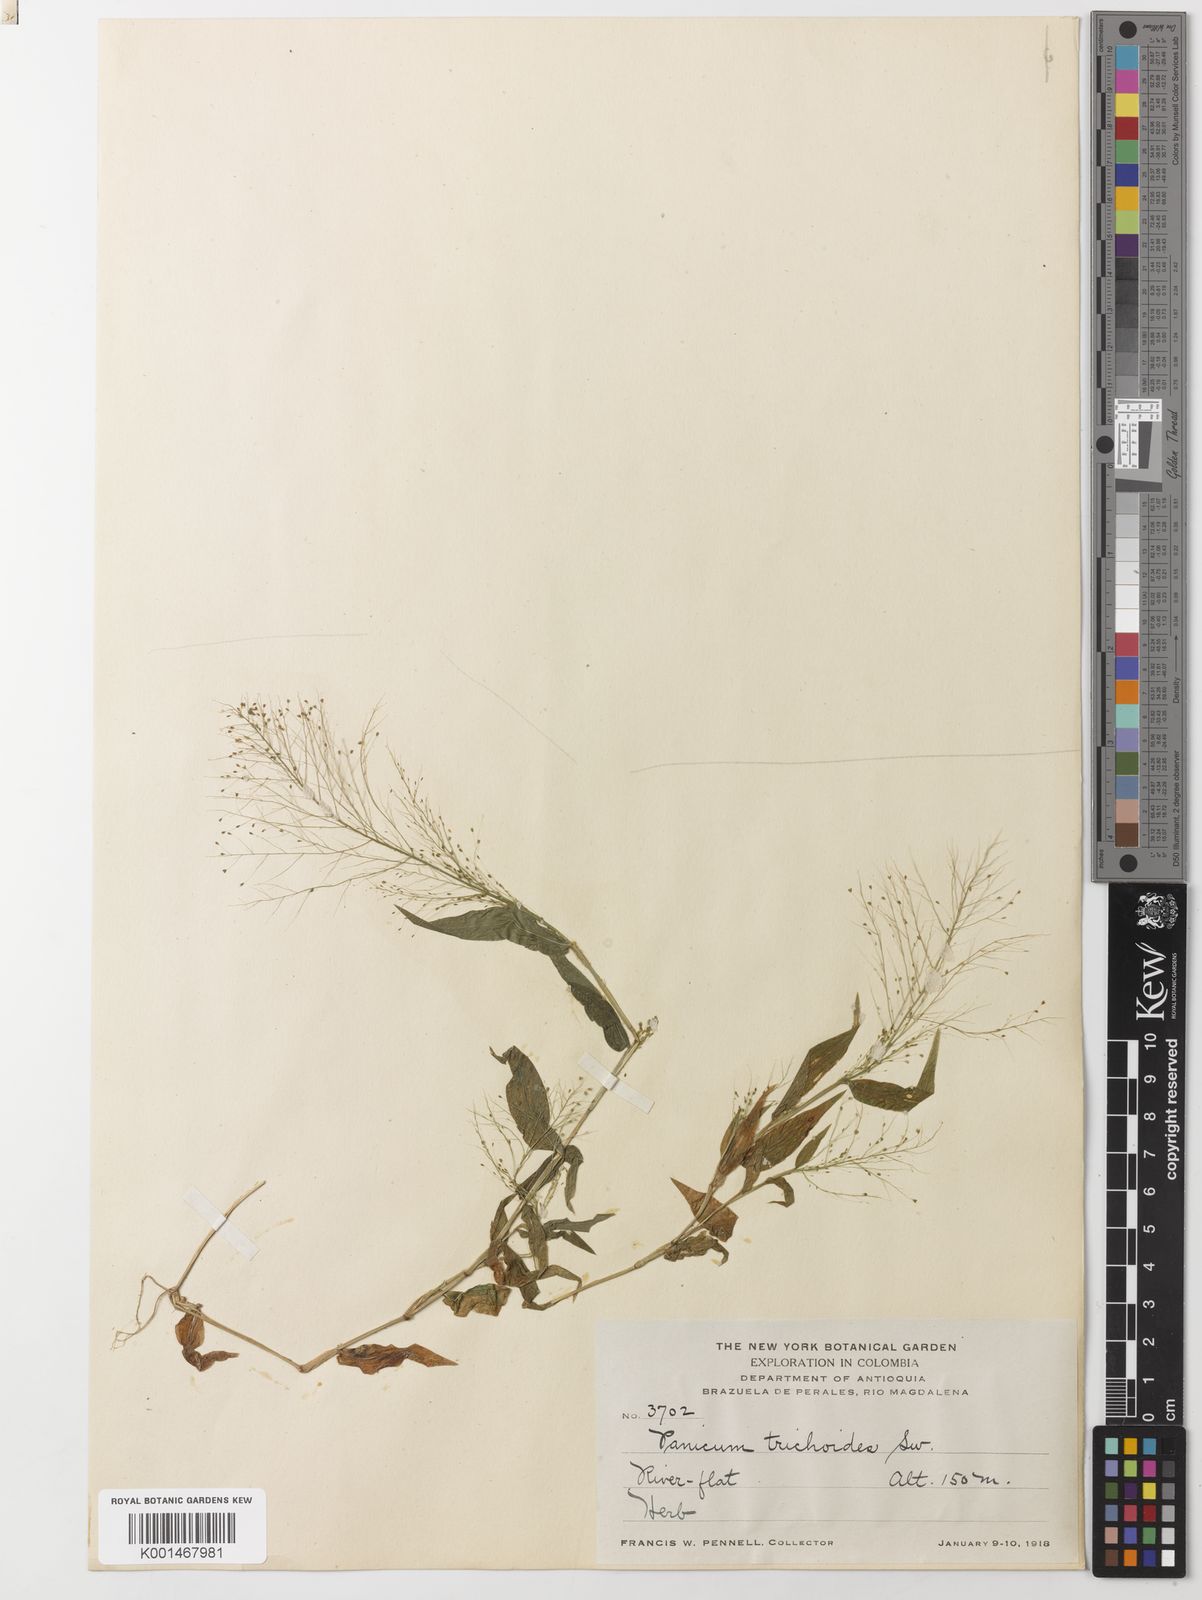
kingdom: Plantae
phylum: Tracheophyta
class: Liliopsida
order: Poales
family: Poaceae
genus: Panicum
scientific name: Panicum trichoides
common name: Tickle grass
